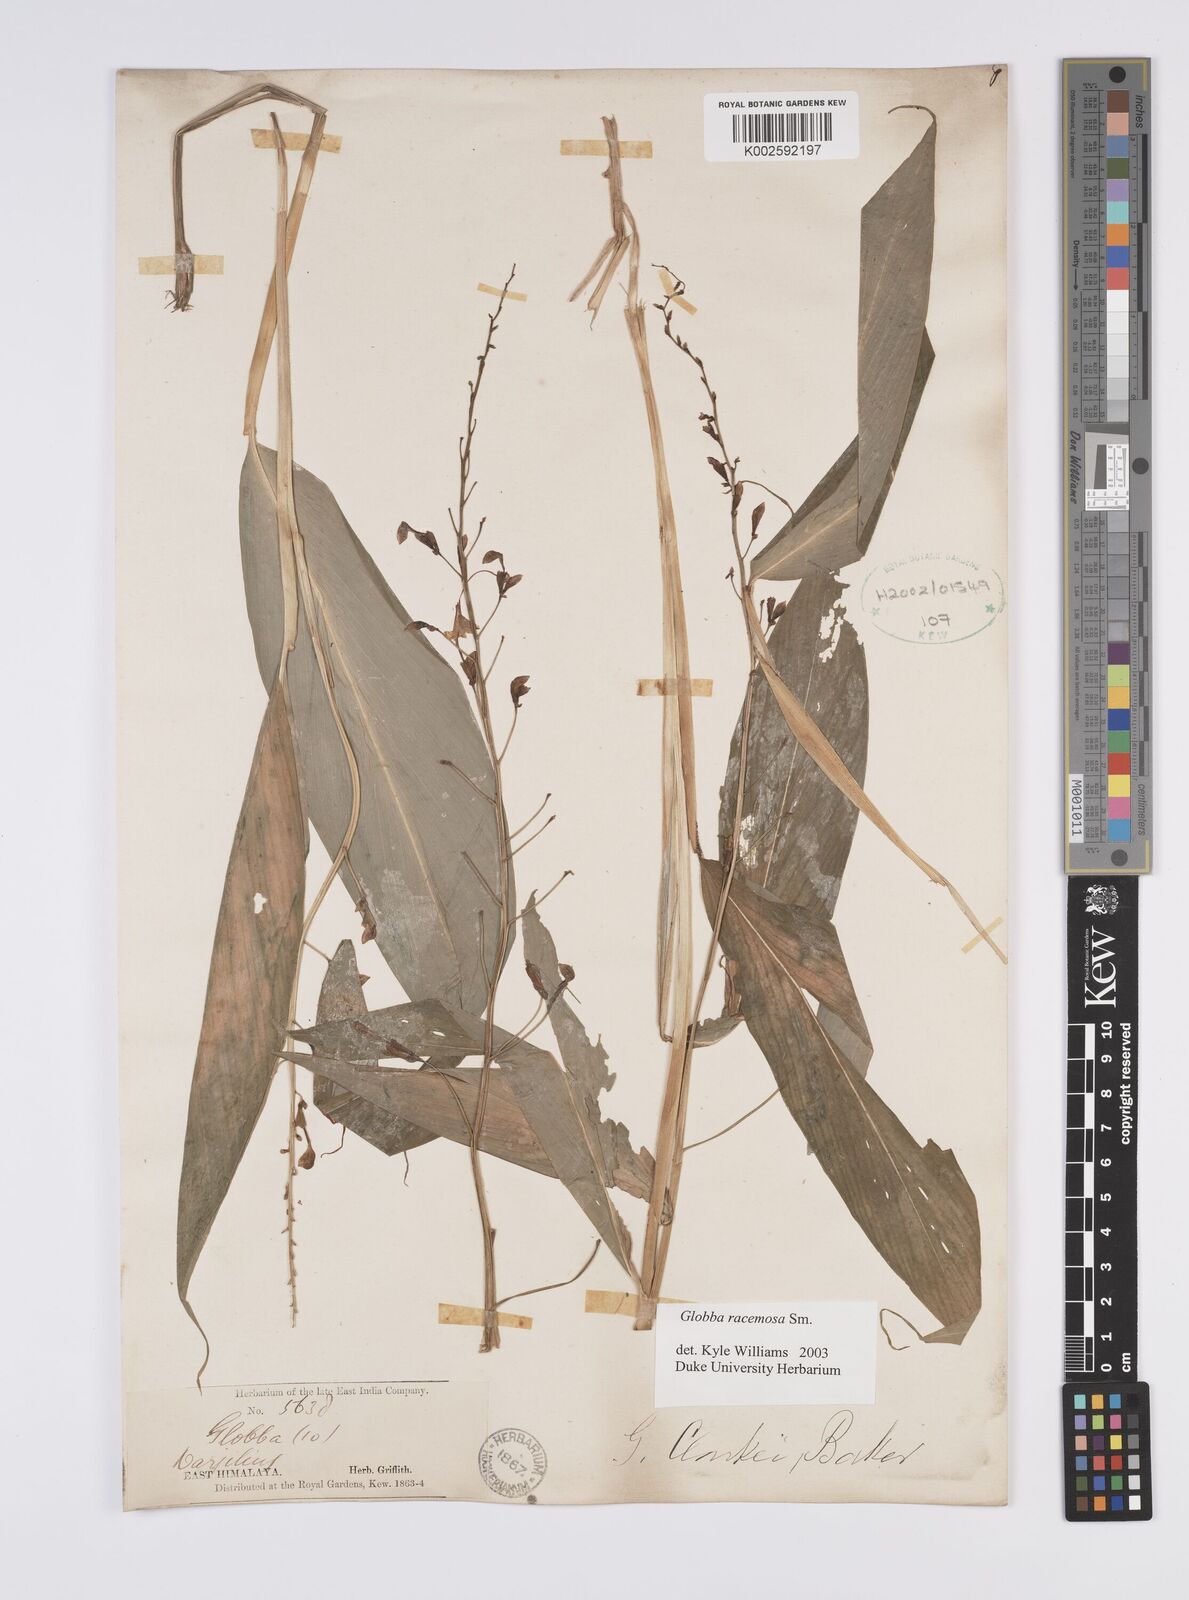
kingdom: Plantae
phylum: Tracheophyta
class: Liliopsida
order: Zingiberales
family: Zingiberaceae
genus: Globba
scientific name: Globba racemosa
